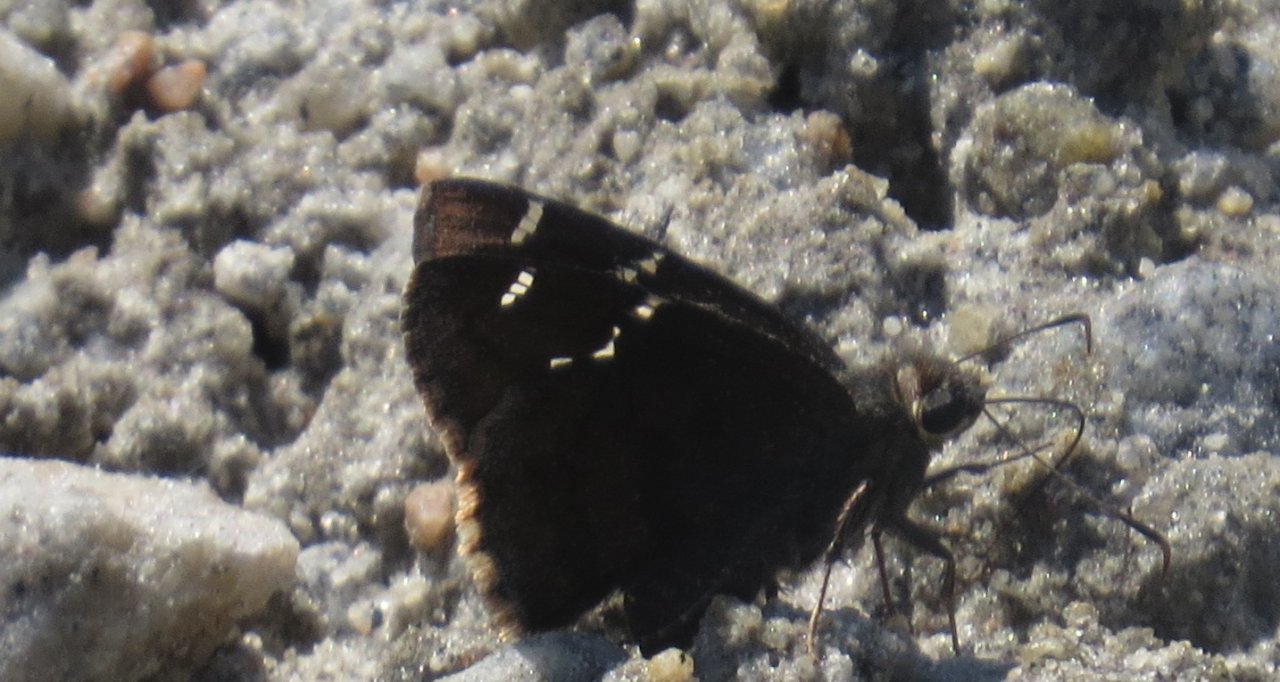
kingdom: Animalia
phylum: Arthropoda
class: Insecta
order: Lepidoptera
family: Hesperiidae
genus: Autochton
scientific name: Autochton
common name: Southern Cloudywing
